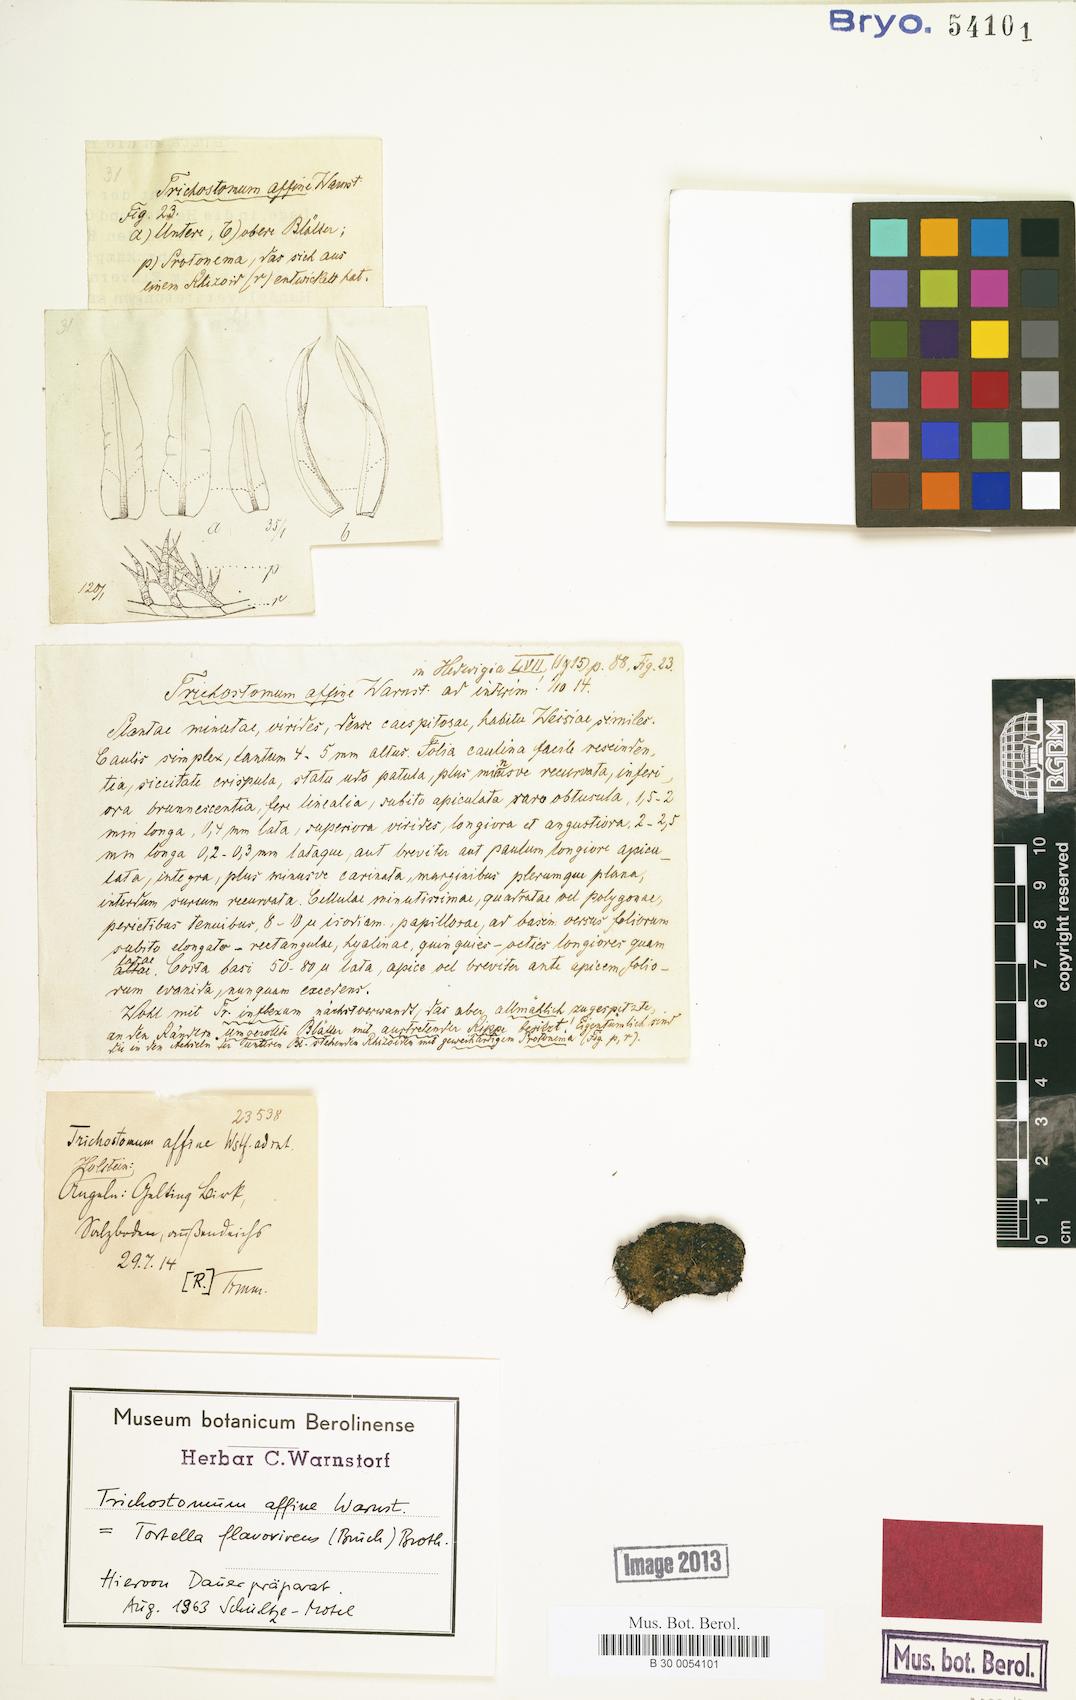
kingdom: Plantae
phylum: Bryophyta
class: Bryopsida
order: Pottiales
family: Pottiaceae
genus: Tortella
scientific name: Tortella flavovirens
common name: Arisaig crisp-moss
